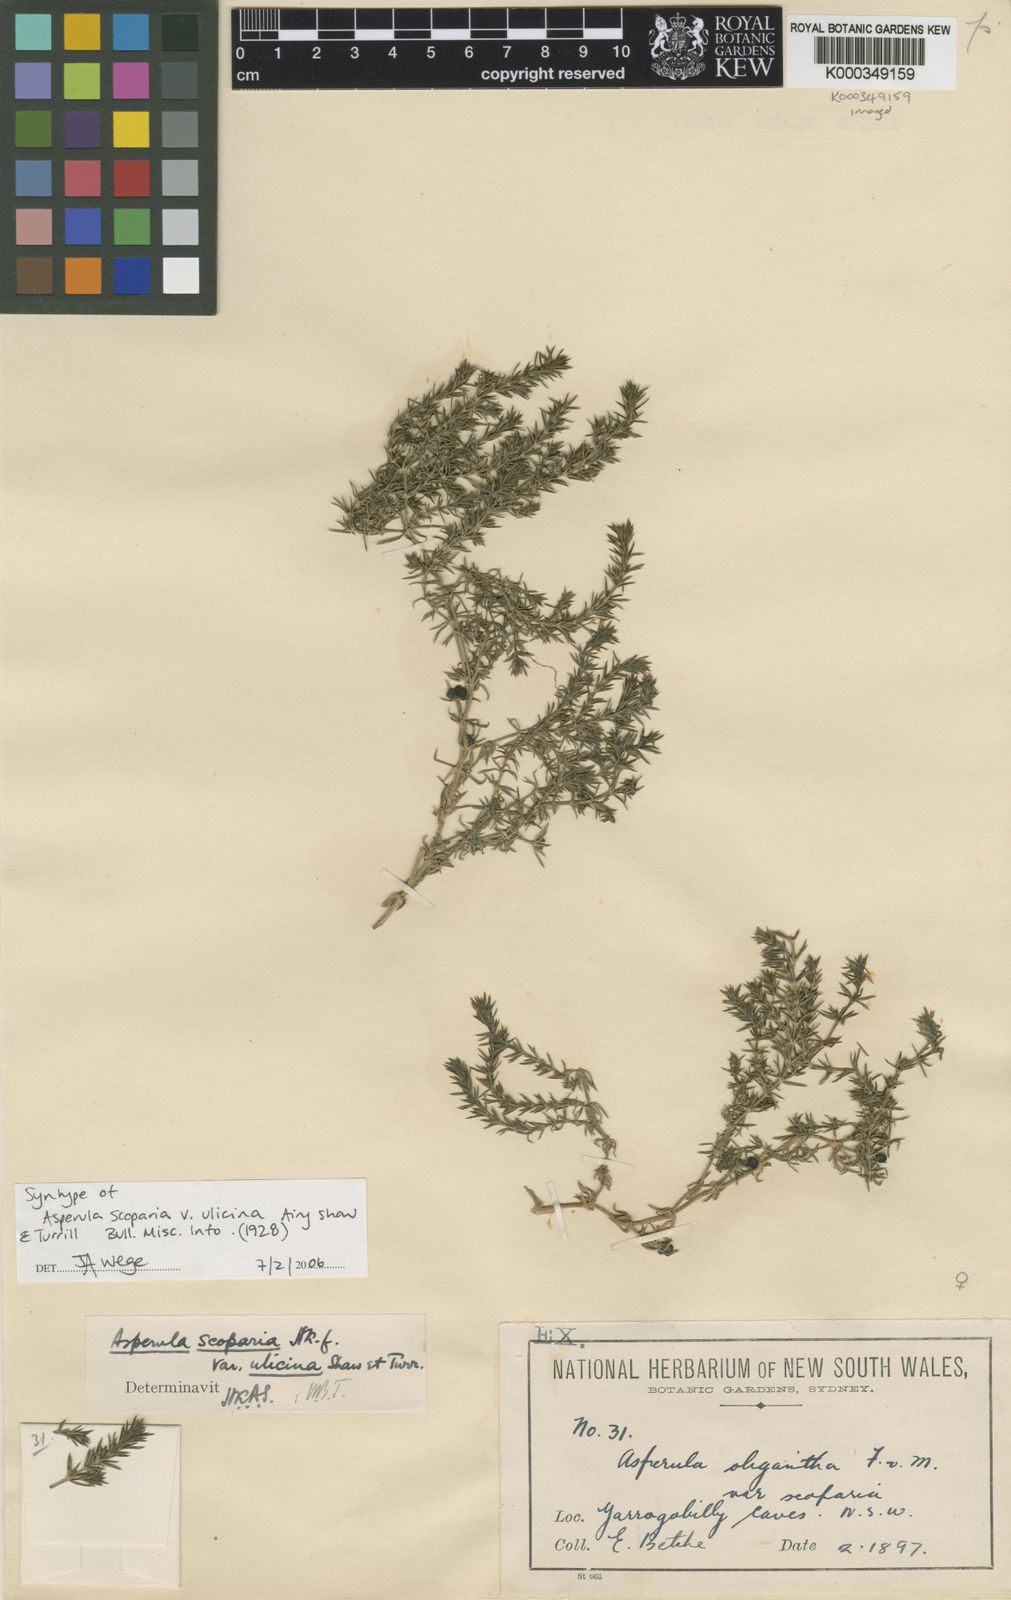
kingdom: Plantae
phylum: Tracheophyta
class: Magnoliopsida
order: Gentianales
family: Rubiaceae
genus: Asperula
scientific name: Asperula scoparia
